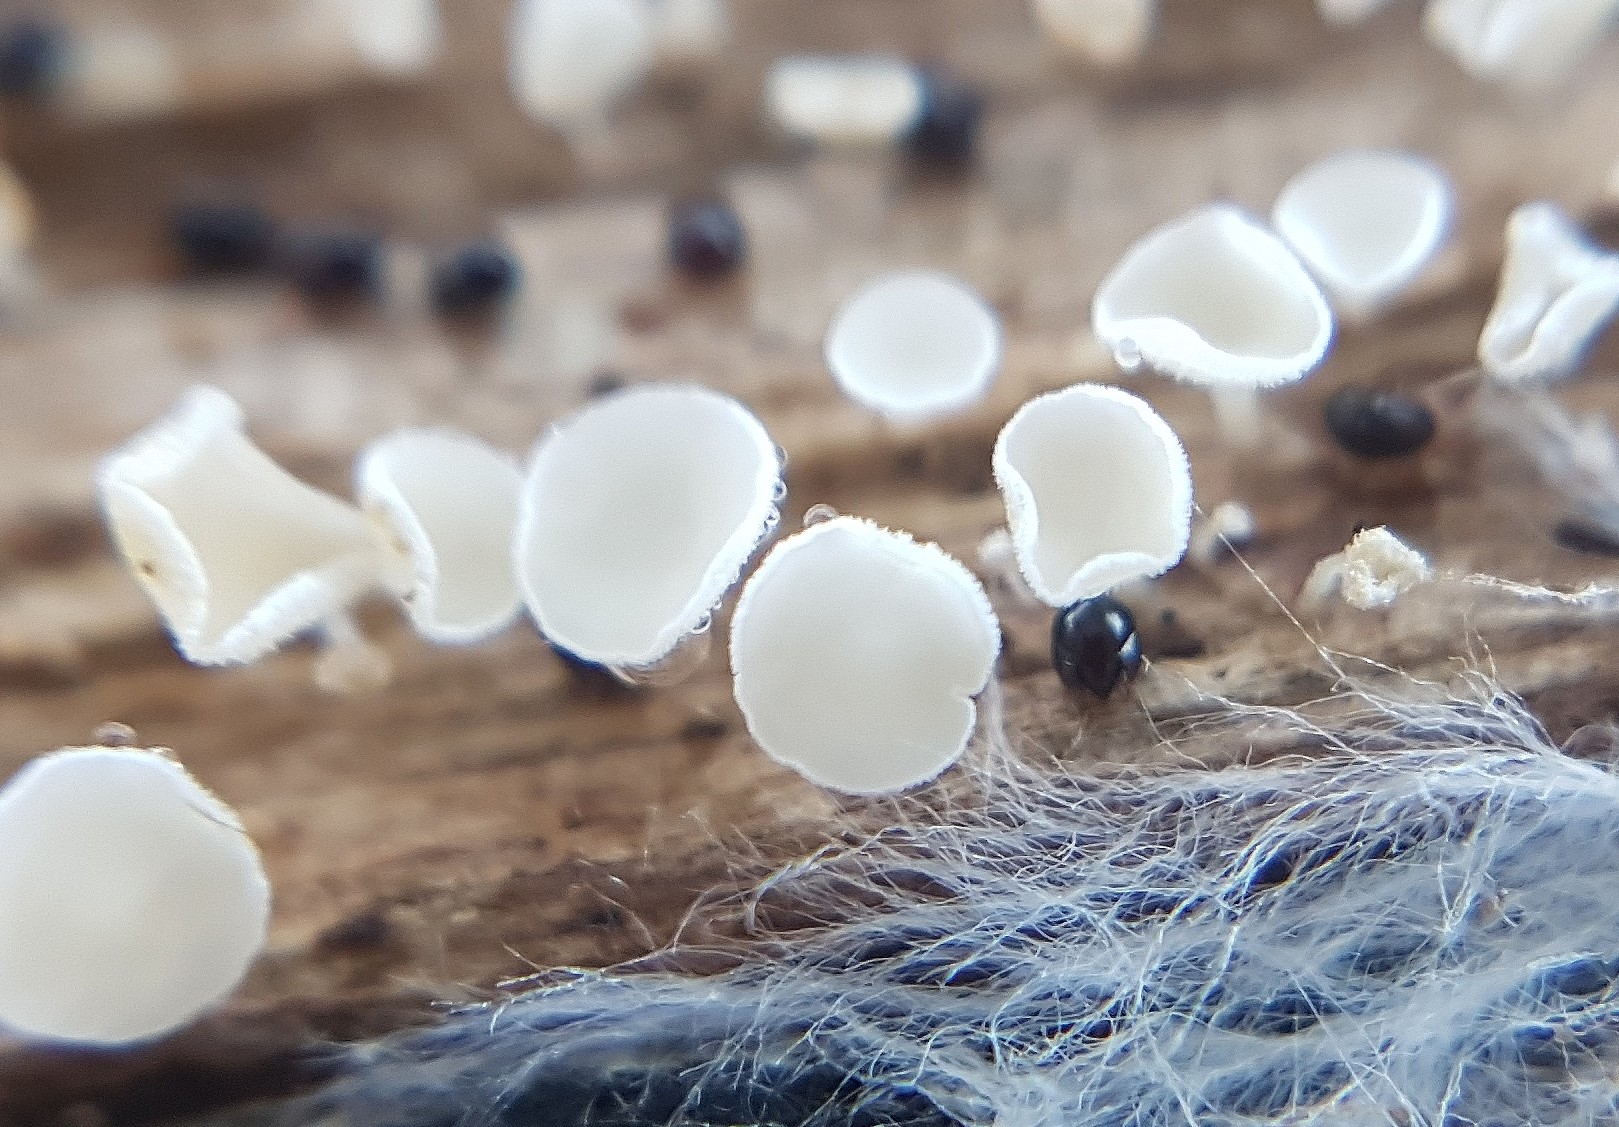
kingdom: Fungi
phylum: Ascomycota
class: Leotiomycetes
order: Helotiales
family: Lachnaceae
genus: Lachnum
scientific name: Lachnum
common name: frynseskive
